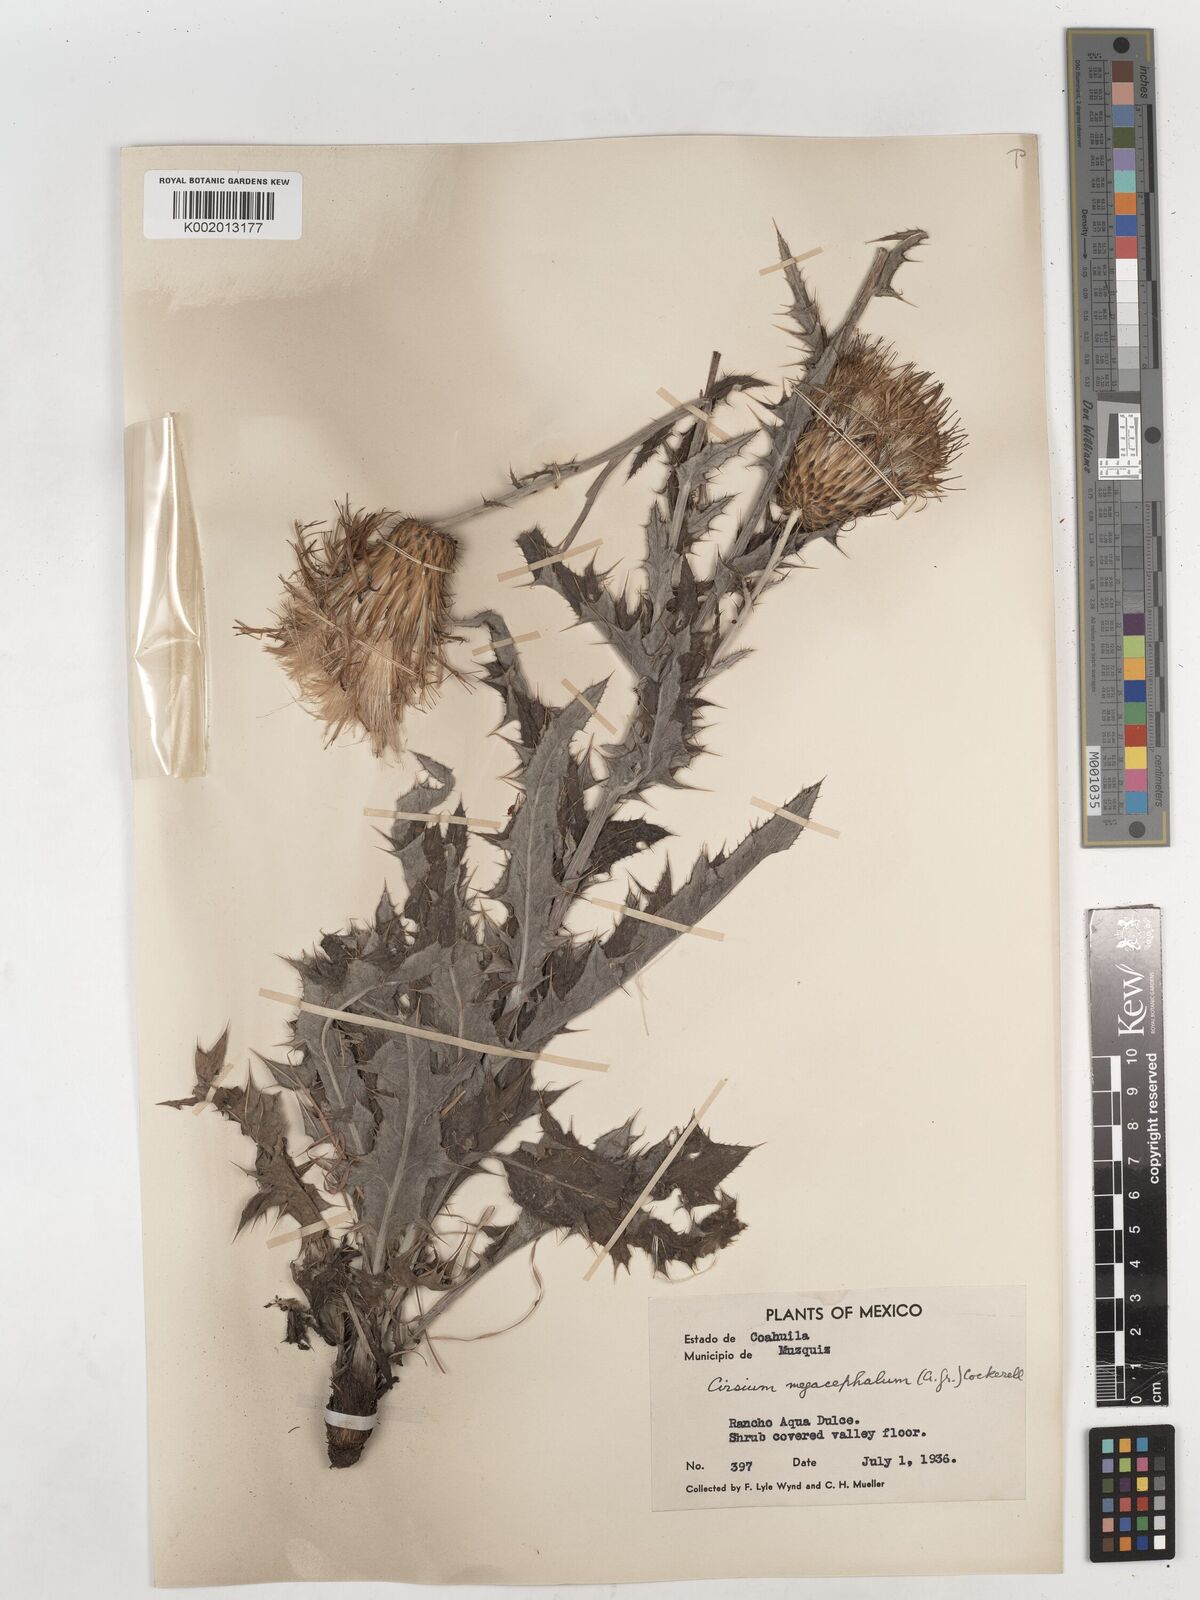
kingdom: Plantae
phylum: Tracheophyta
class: Magnoliopsida
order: Asterales
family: Asteraceae
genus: Cirsium
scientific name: Cirsium undulatum
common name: Pasture thistle
